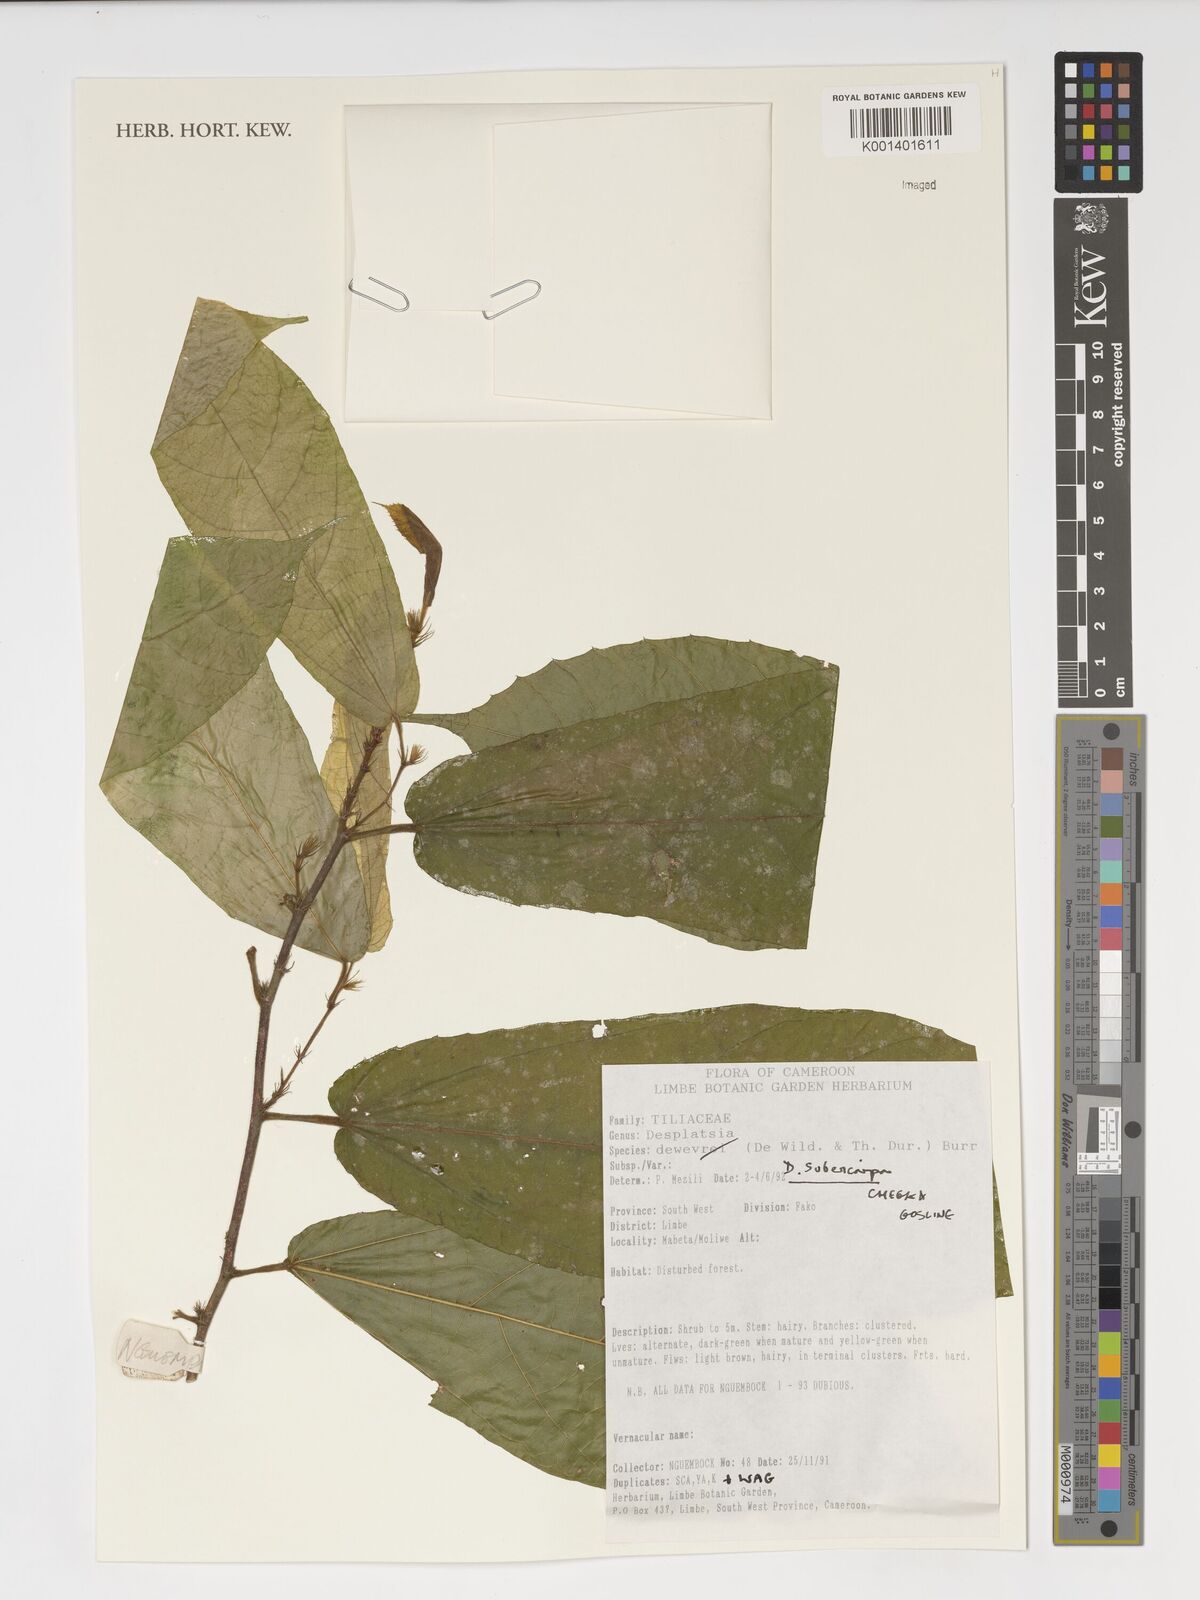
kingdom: Plantae
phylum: Tracheophyta
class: Magnoliopsida
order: Malvales
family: Malvaceae
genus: Desplatsia
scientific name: Desplatsia subericarpa
